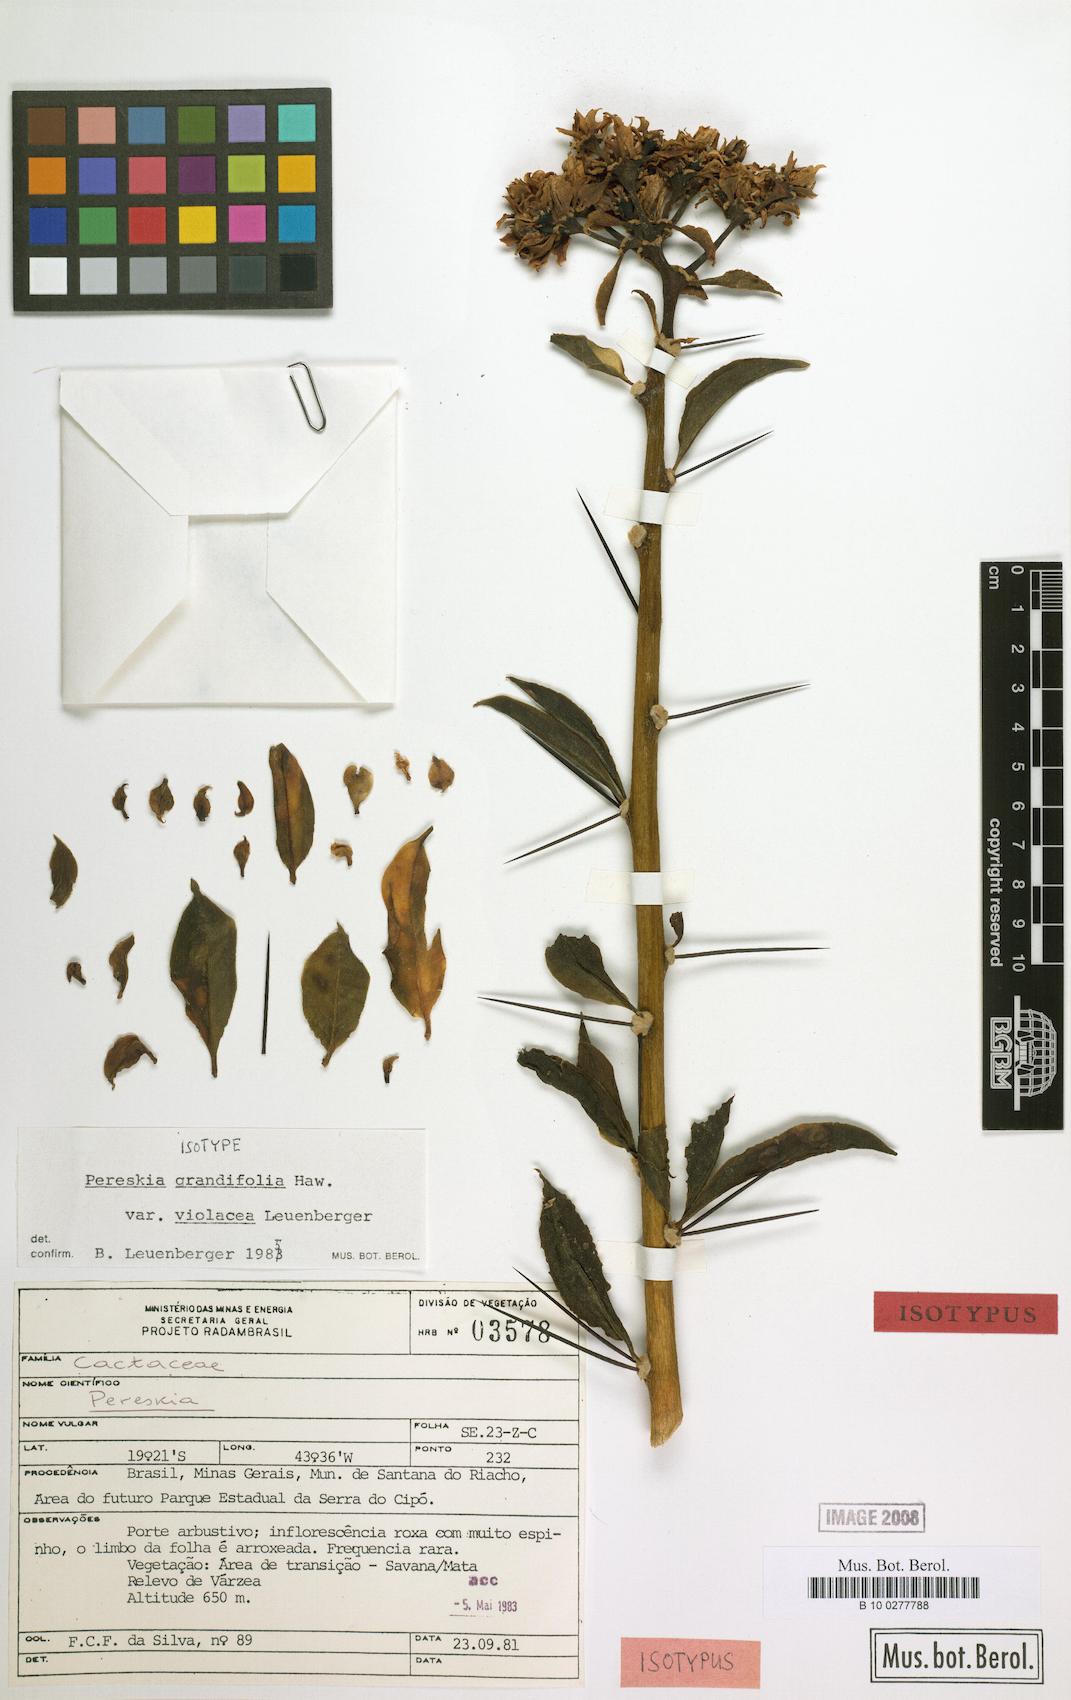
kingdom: Plantae
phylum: Tracheophyta
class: Magnoliopsida
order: Caryophyllales
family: Cactaceae
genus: Pereskia
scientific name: Pereskia violacea
